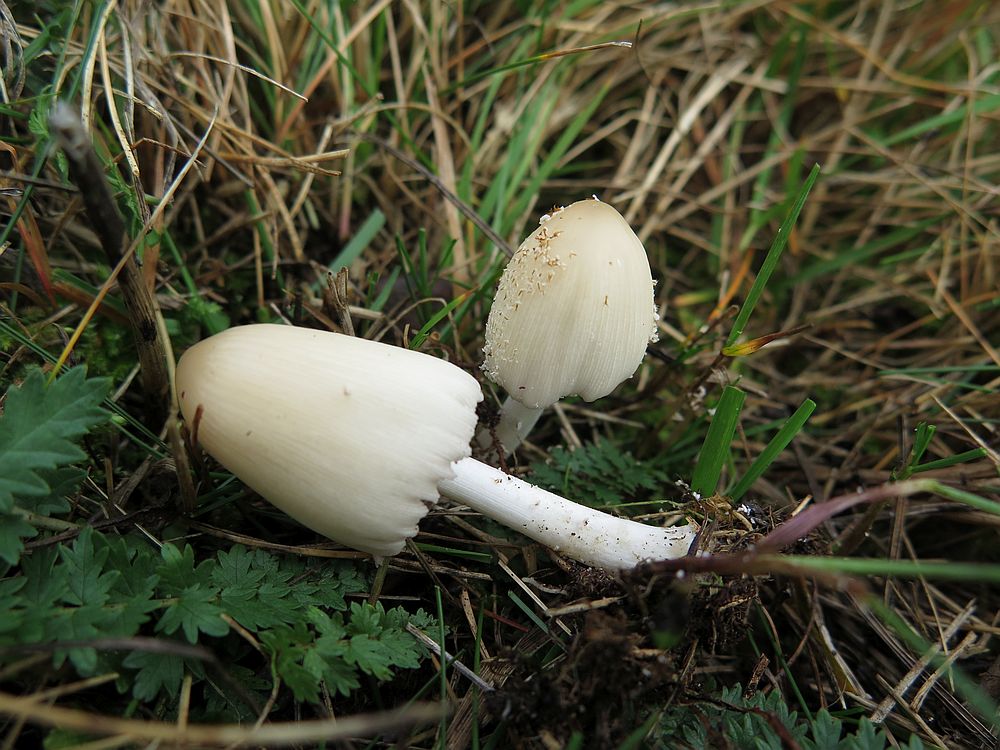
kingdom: Fungi
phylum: Basidiomycota
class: Agaricomycetes
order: Agaricales
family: Psathyrellaceae
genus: Coprinellus
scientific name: Coprinellus domesticus
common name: hus-blækhat
